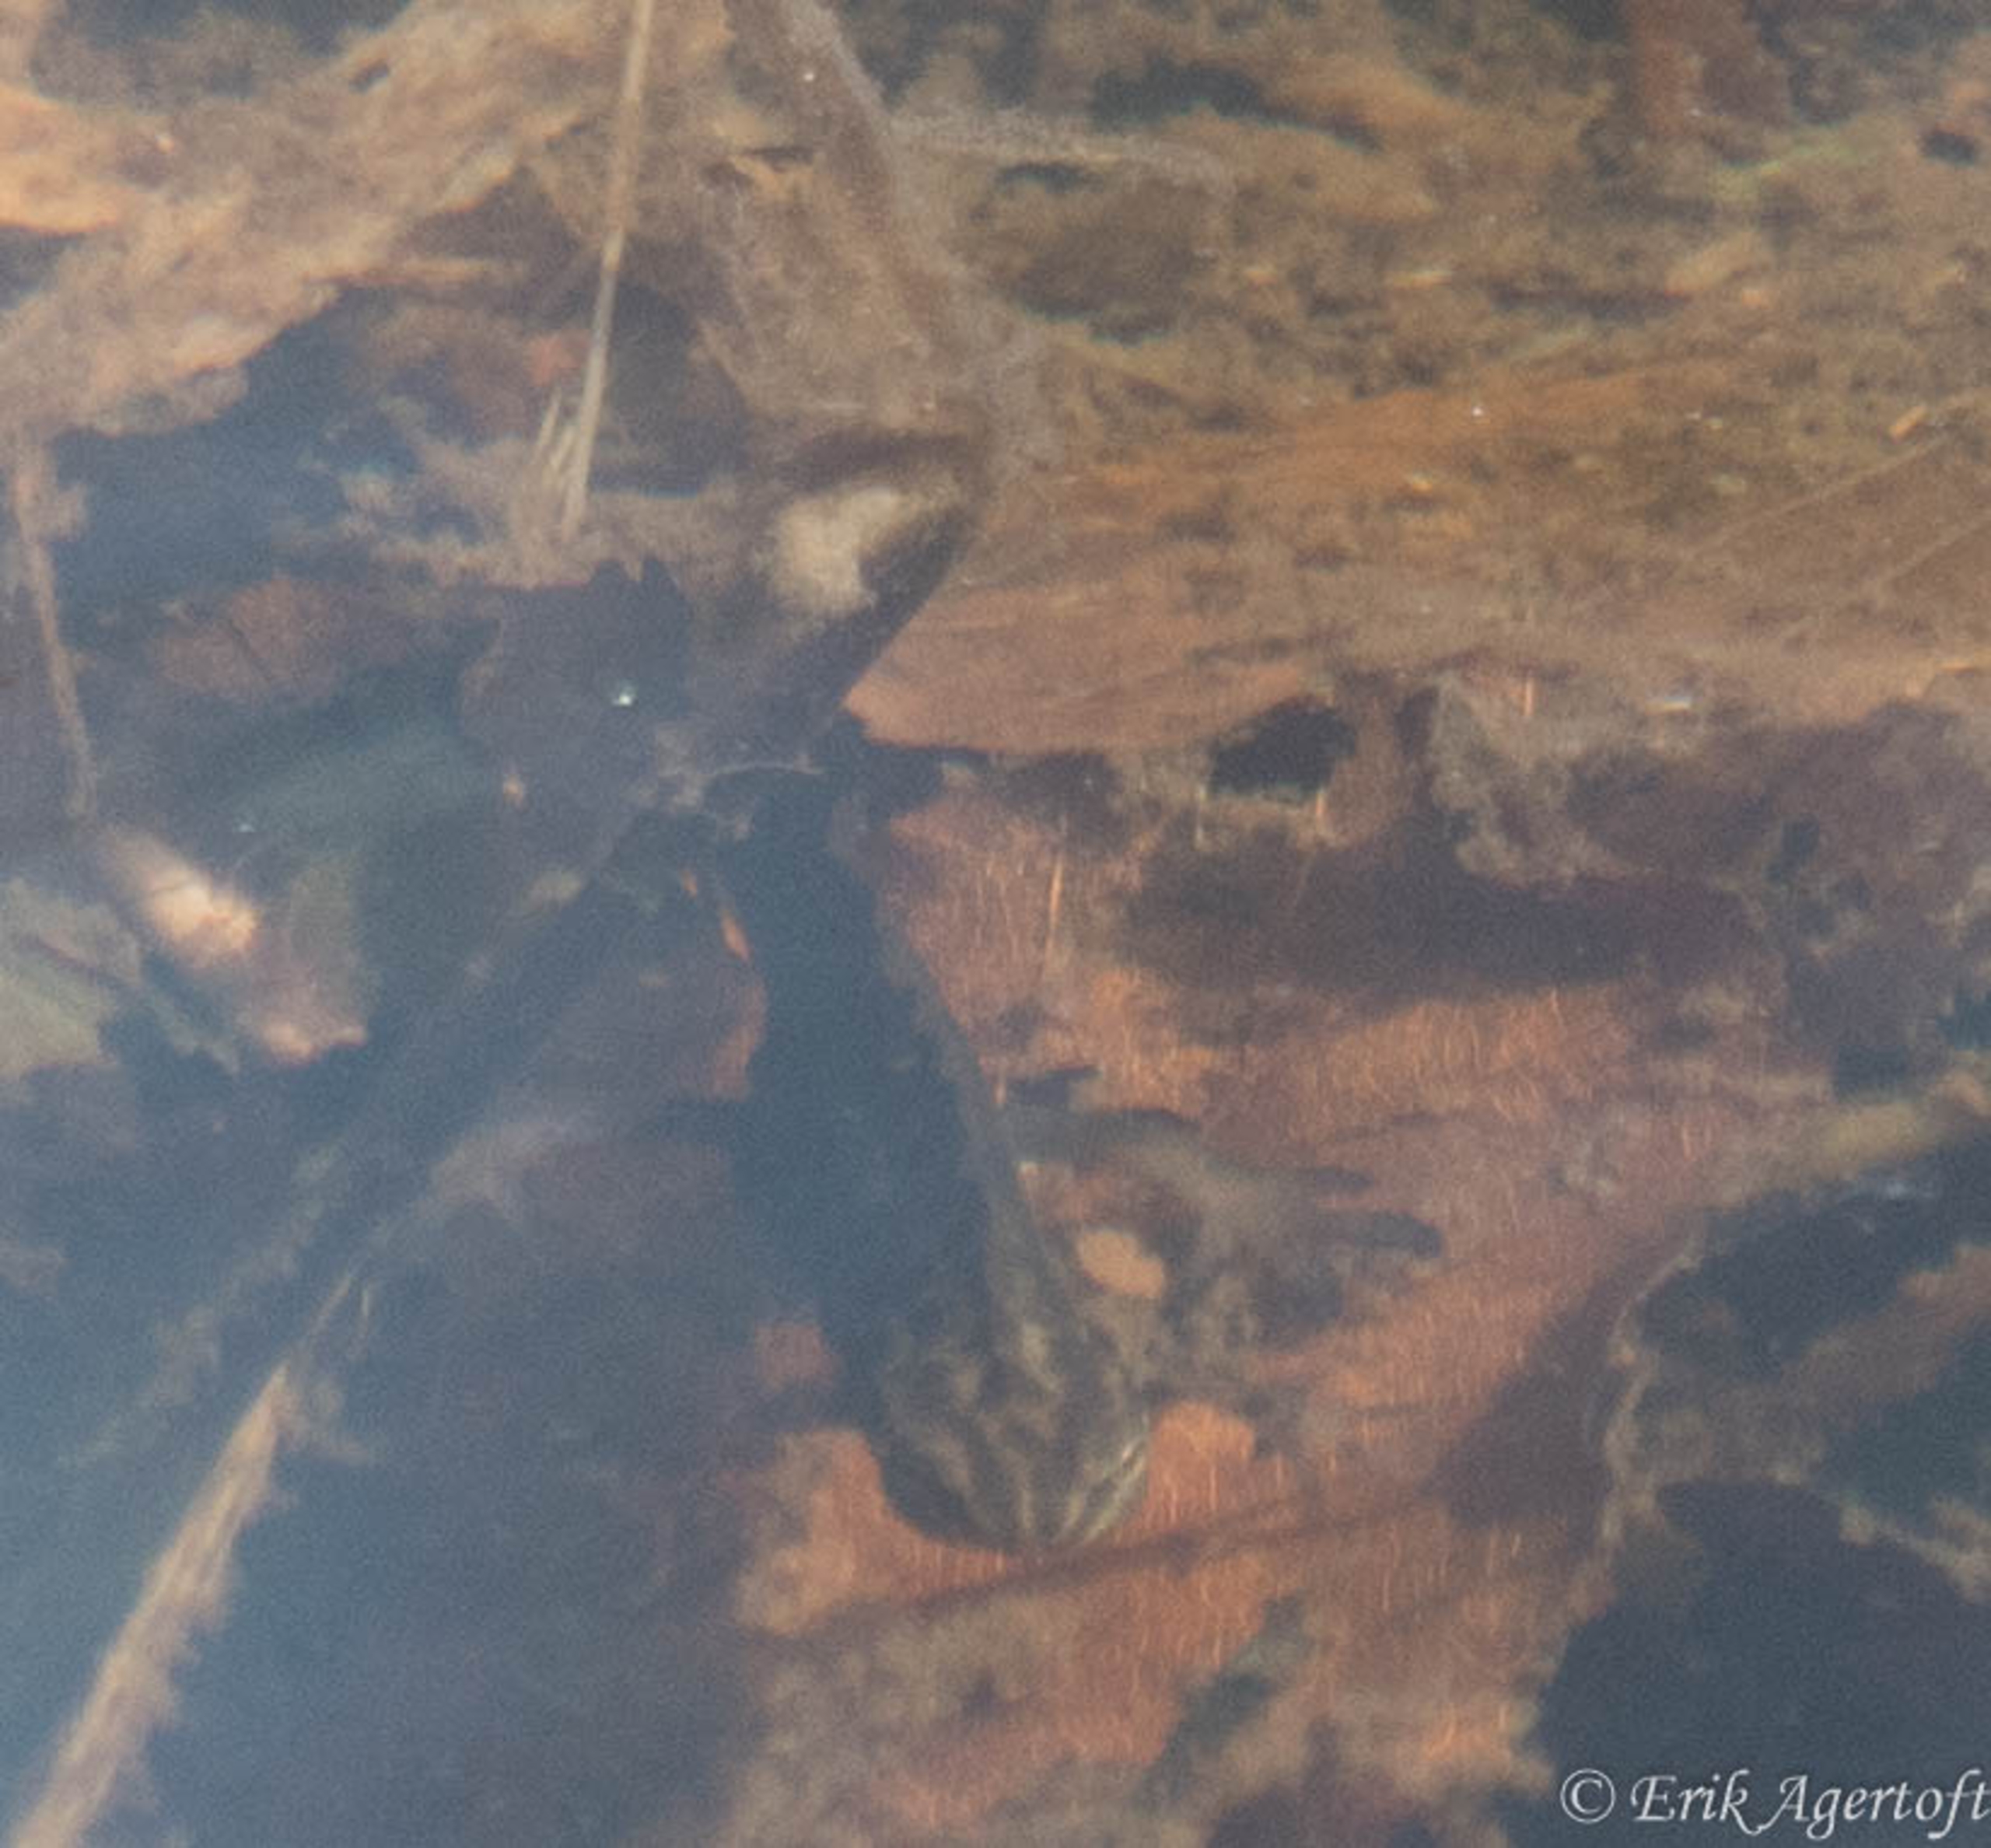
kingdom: Animalia
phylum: Chordata
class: Amphibia
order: Caudata
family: Salamandridae
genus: Lissotriton
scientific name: Lissotriton vulgaris
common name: Lille vandsalamander
